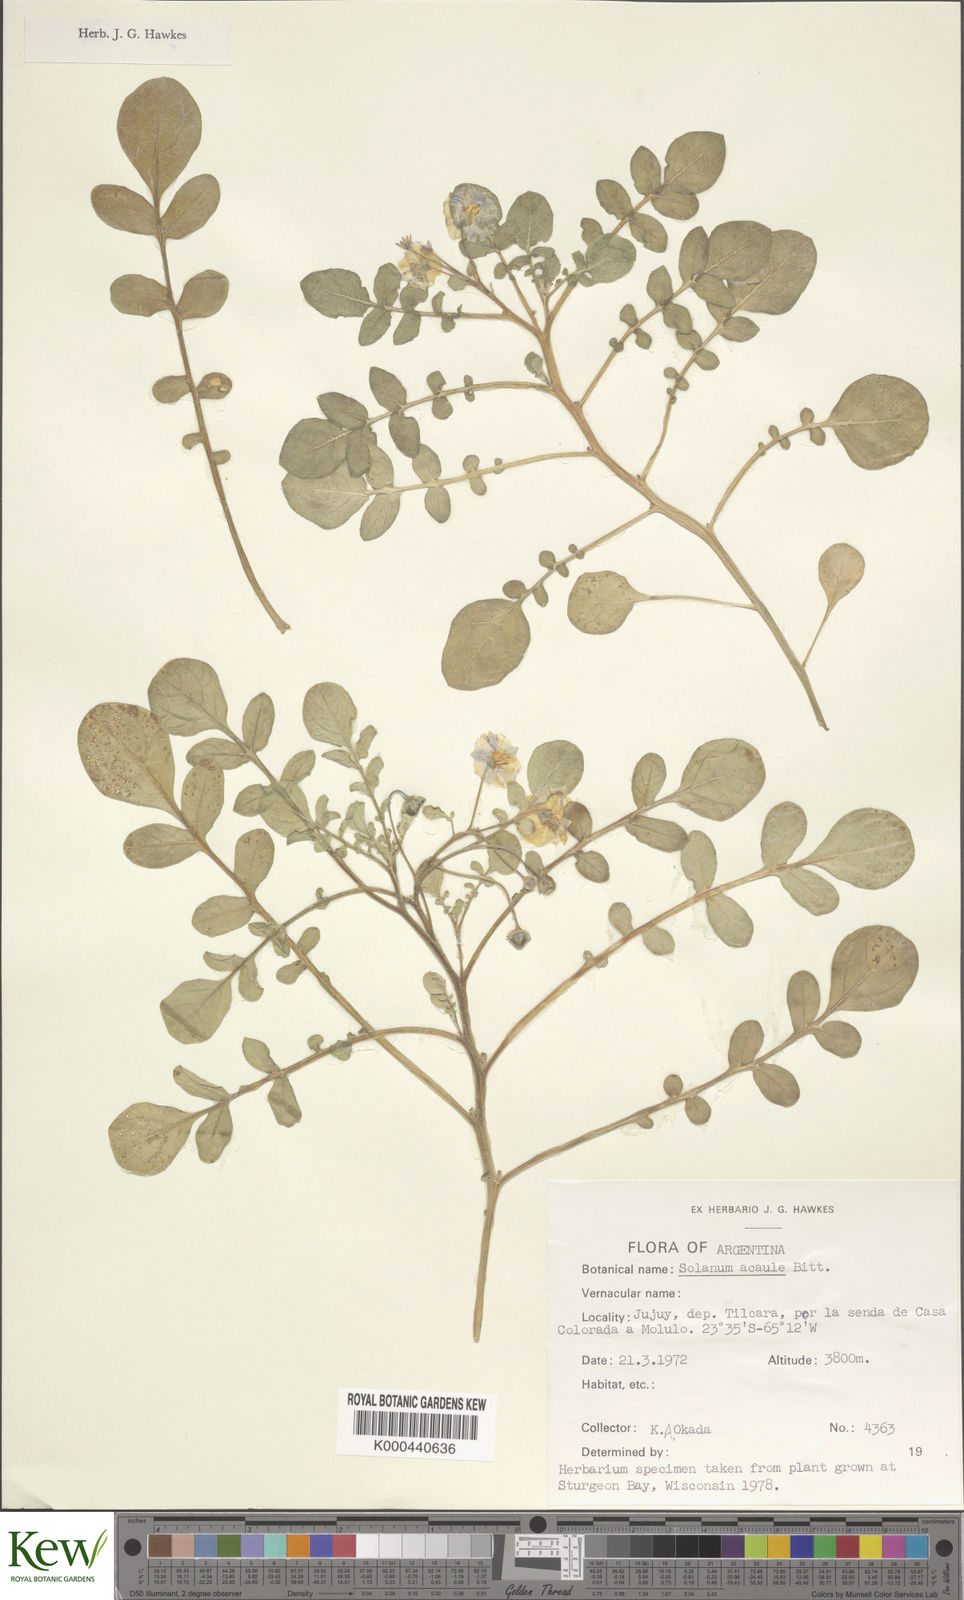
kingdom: Plantae
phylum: Tracheophyta
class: Magnoliopsida
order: Solanales
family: Solanaceae
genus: Solanum
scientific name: Solanum acaule
